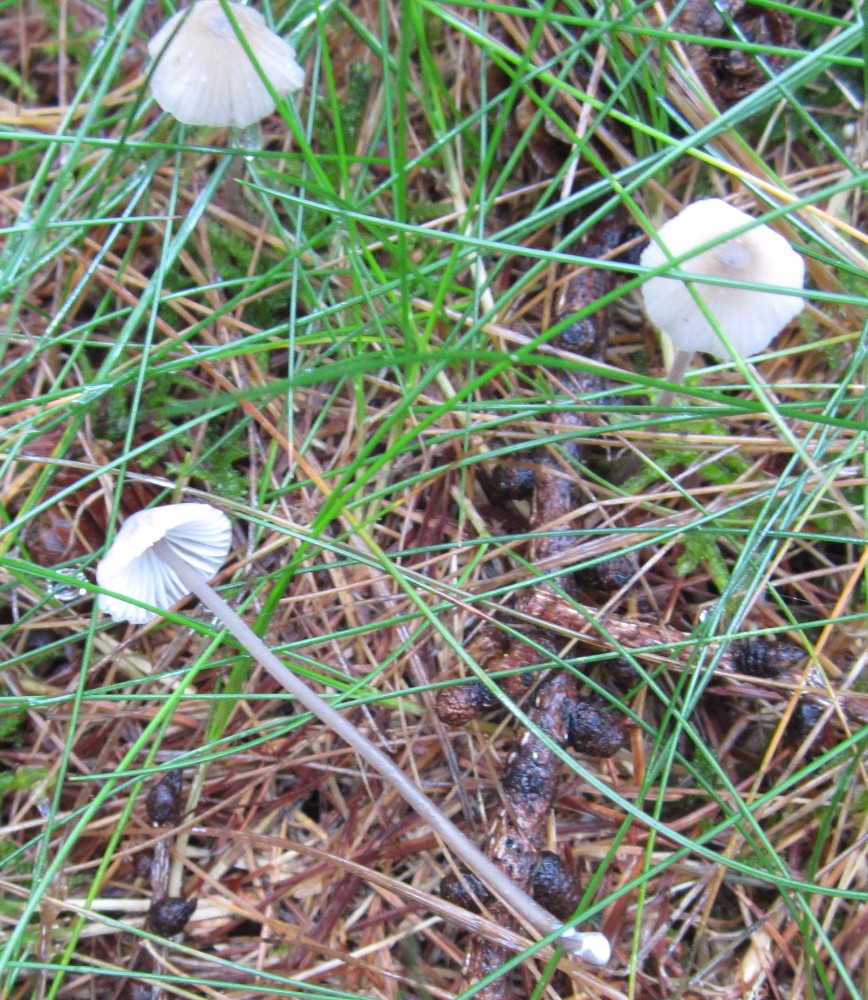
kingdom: Fungi
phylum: Basidiomycota
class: Agaricomycetes
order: Agaricales
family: Mycenaceae
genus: Mycena
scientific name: Mycena galopus
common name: hvidmælket huesvamp
